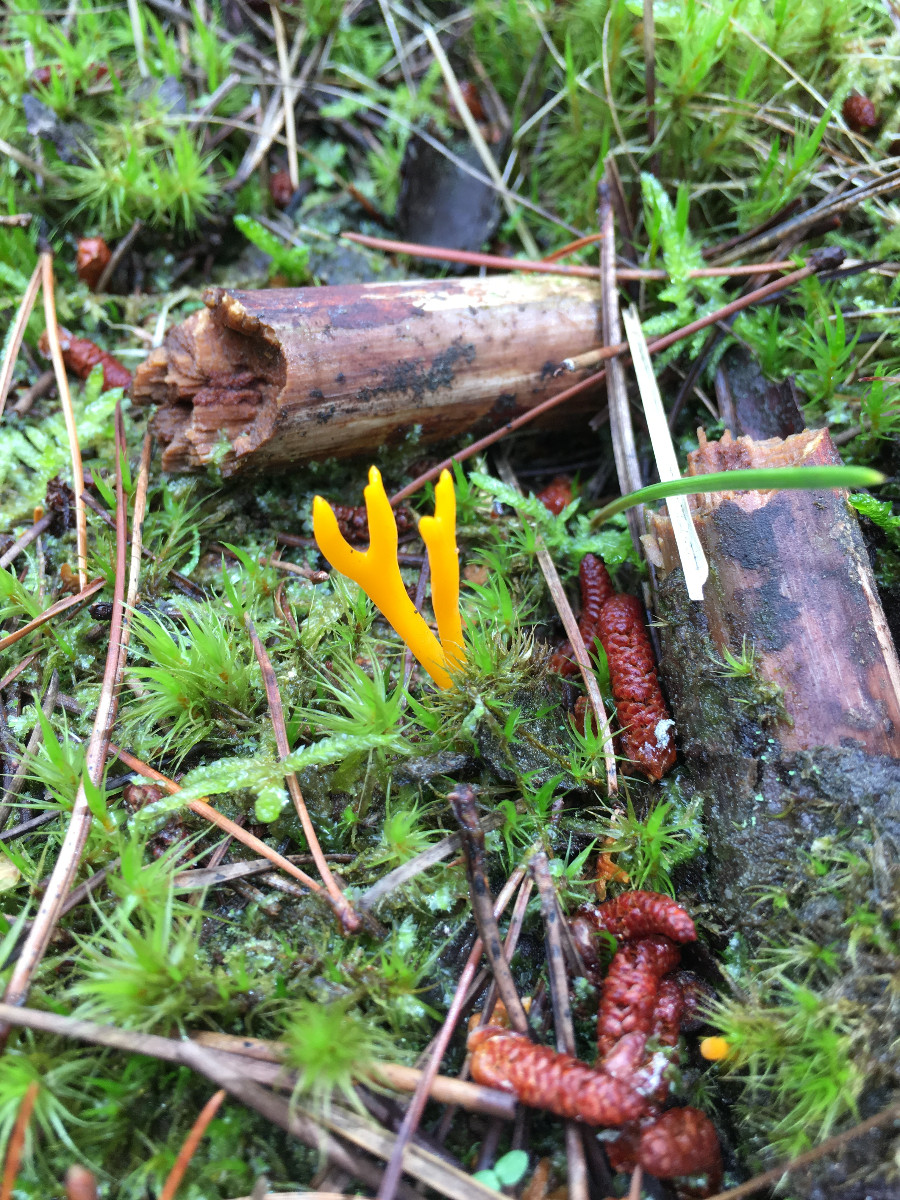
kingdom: Fungi
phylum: Basidiomycota
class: Dacrymycetes
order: Dacrymycetales
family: Dacrymycetaceae
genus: Calocera
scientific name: Calocera viscosa
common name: almindelig guldgaffel
